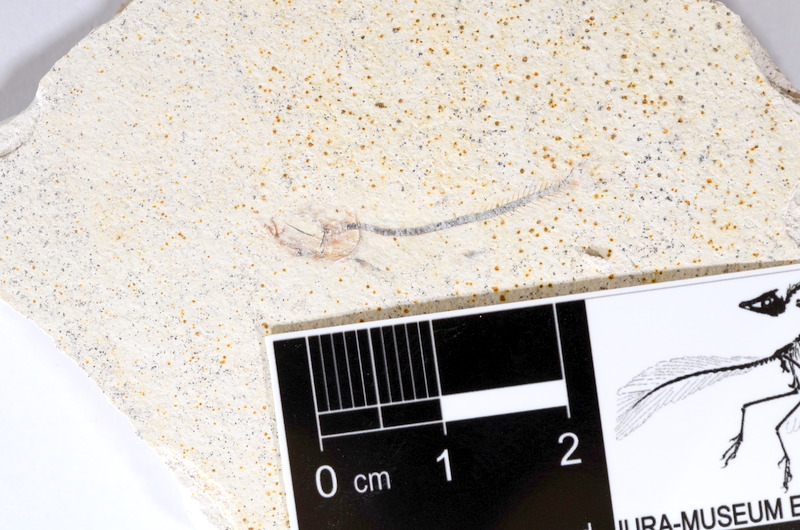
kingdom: Animalia
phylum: Chordata
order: Salmoniformes
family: Orthogonikleithridae
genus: Orthogonikleithrus
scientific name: Orthogonikleithrus hoelli
